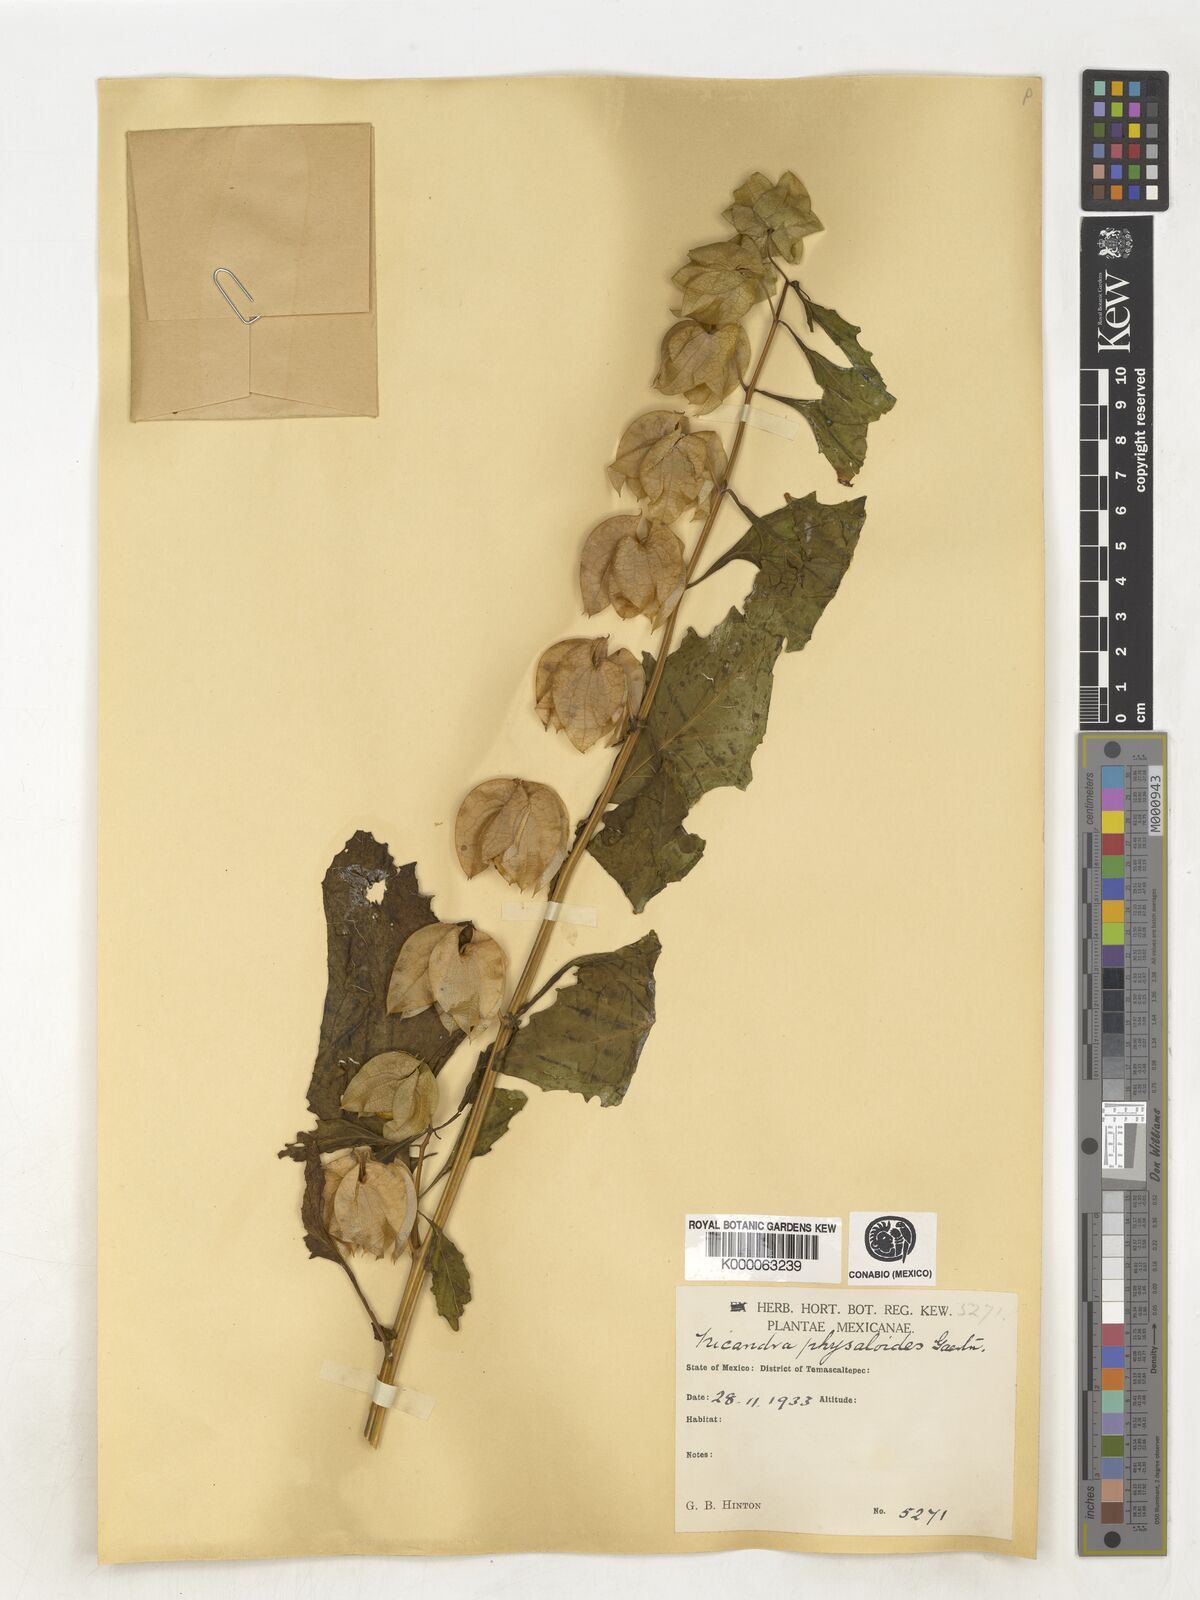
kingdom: Plantae
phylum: Tracheophyta
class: Magnoliopsida
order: Solanales
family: Solanaceae
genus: Nicandra
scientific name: Nicandra
